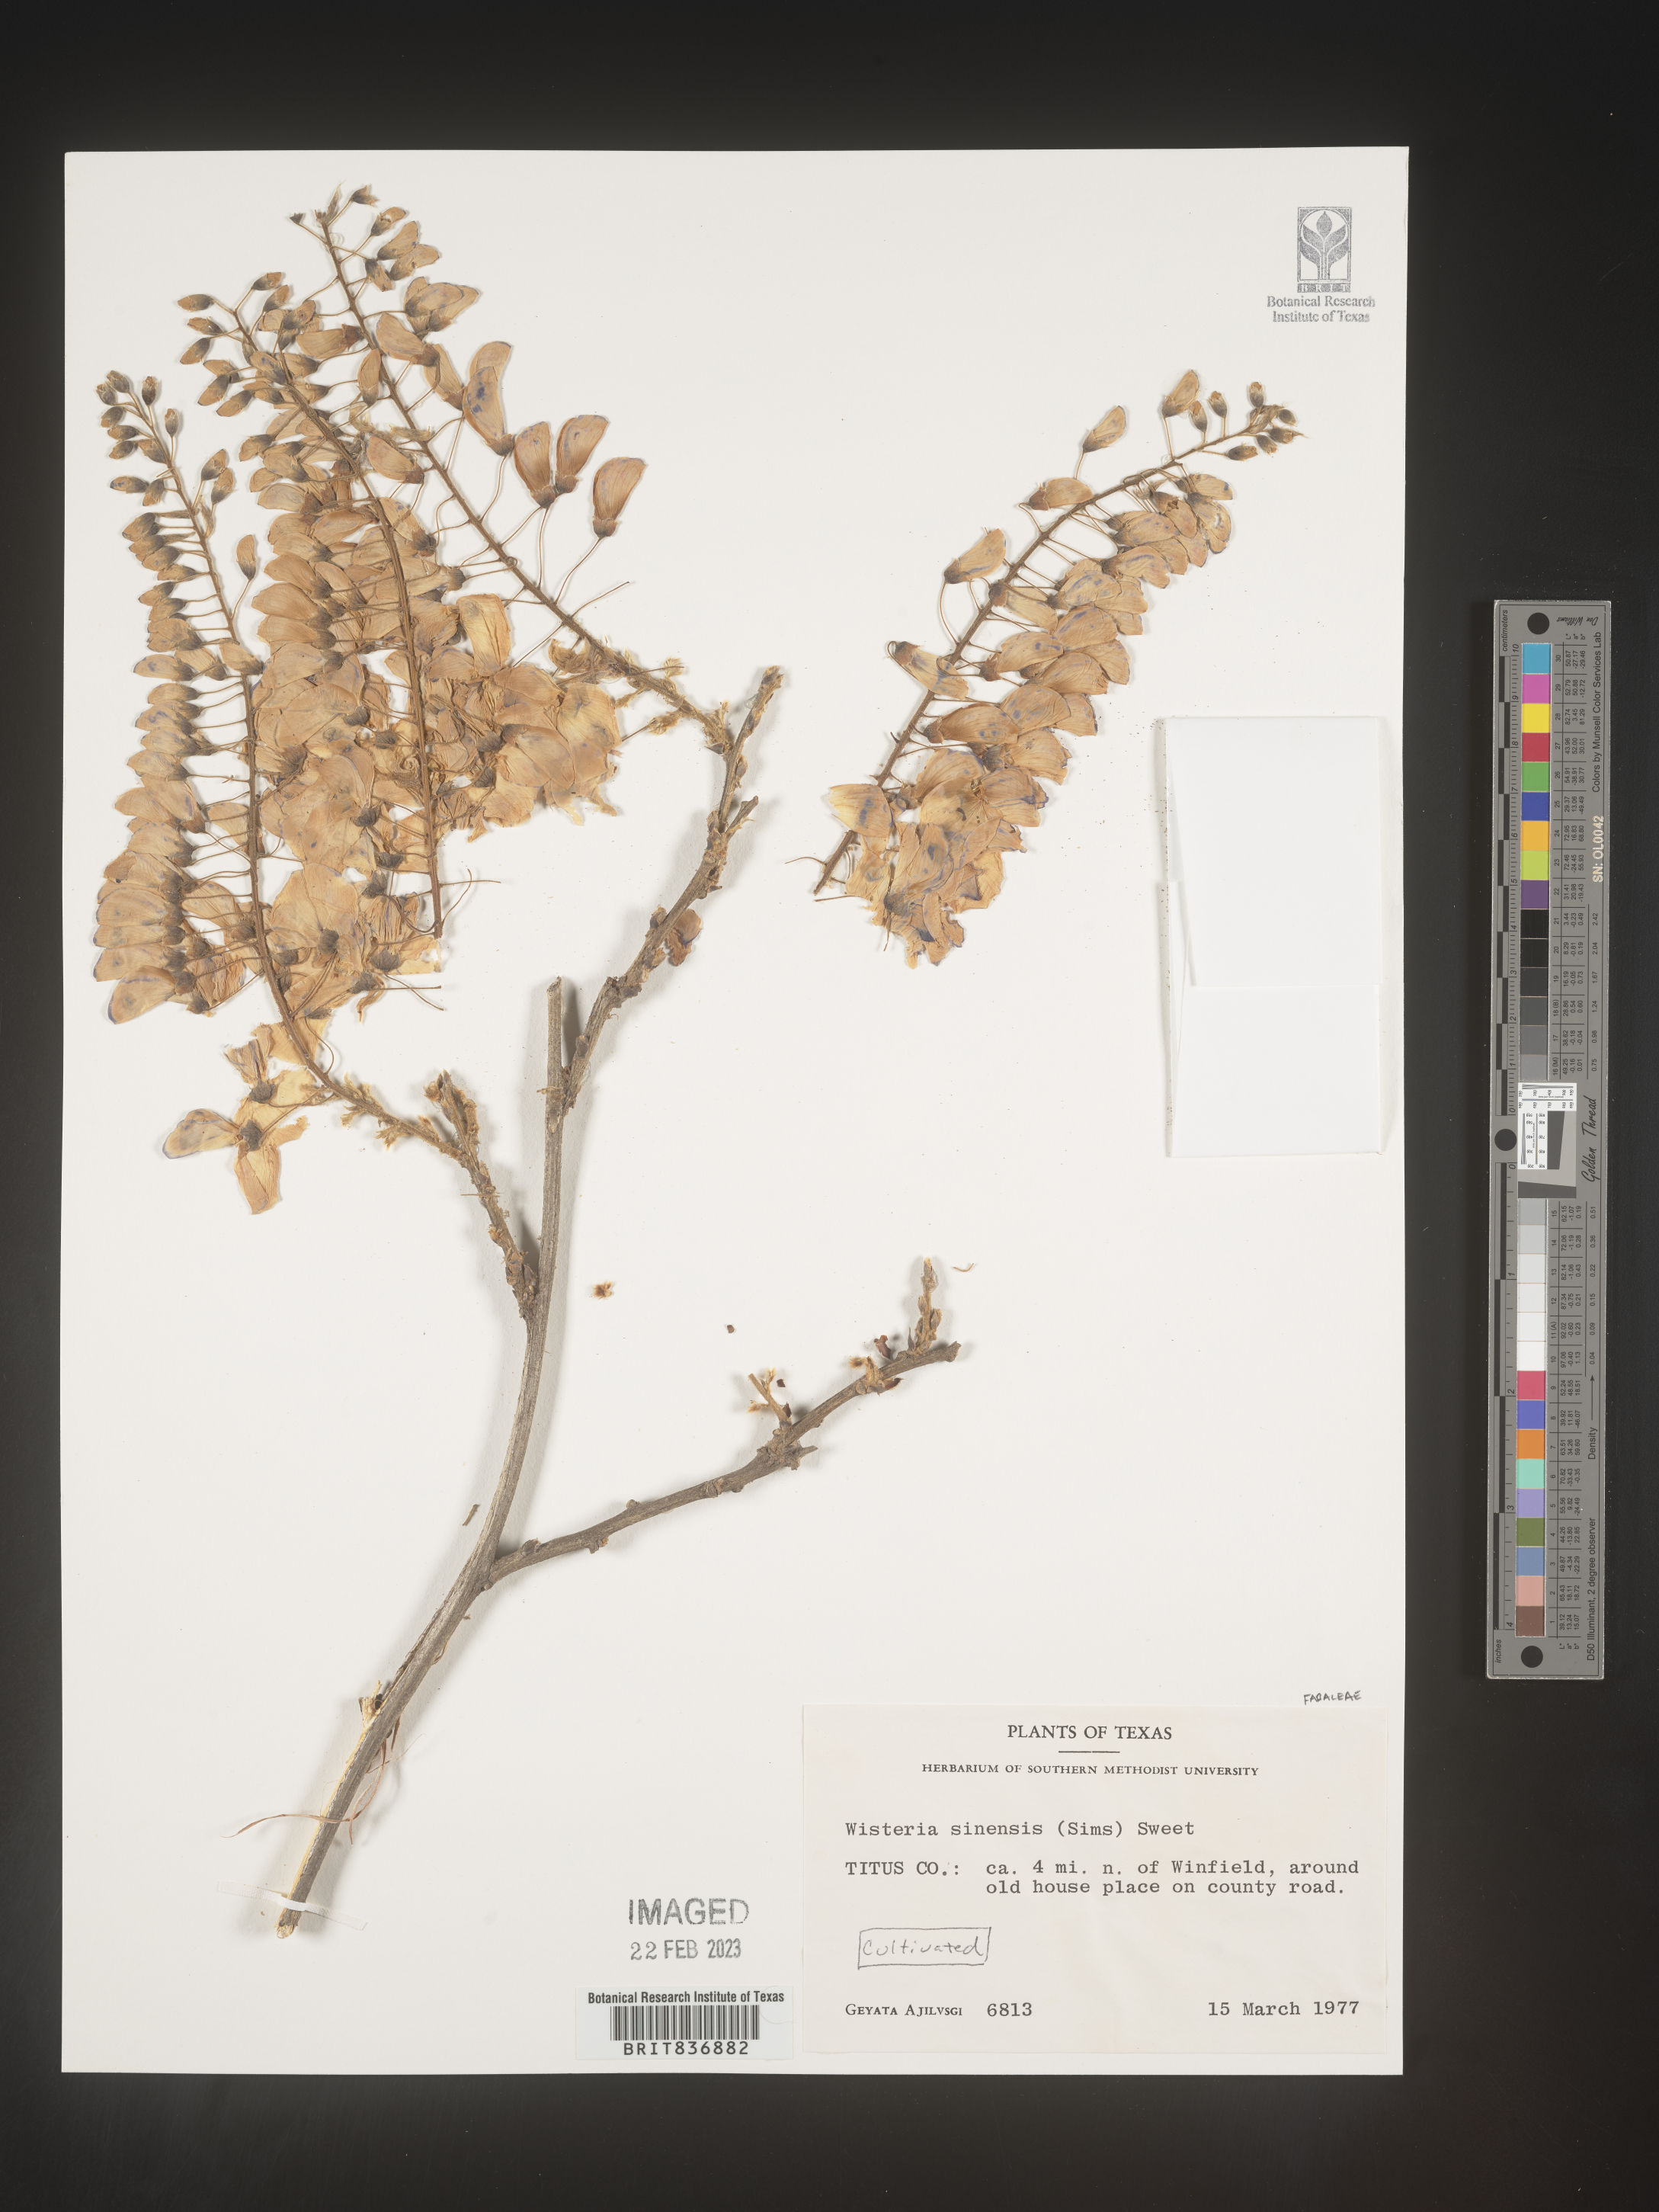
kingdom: Plantae
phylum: Tracheophyta
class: Magnoliopsida
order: Fabales
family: Fabaceae
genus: Wisteria
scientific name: Wisteria
